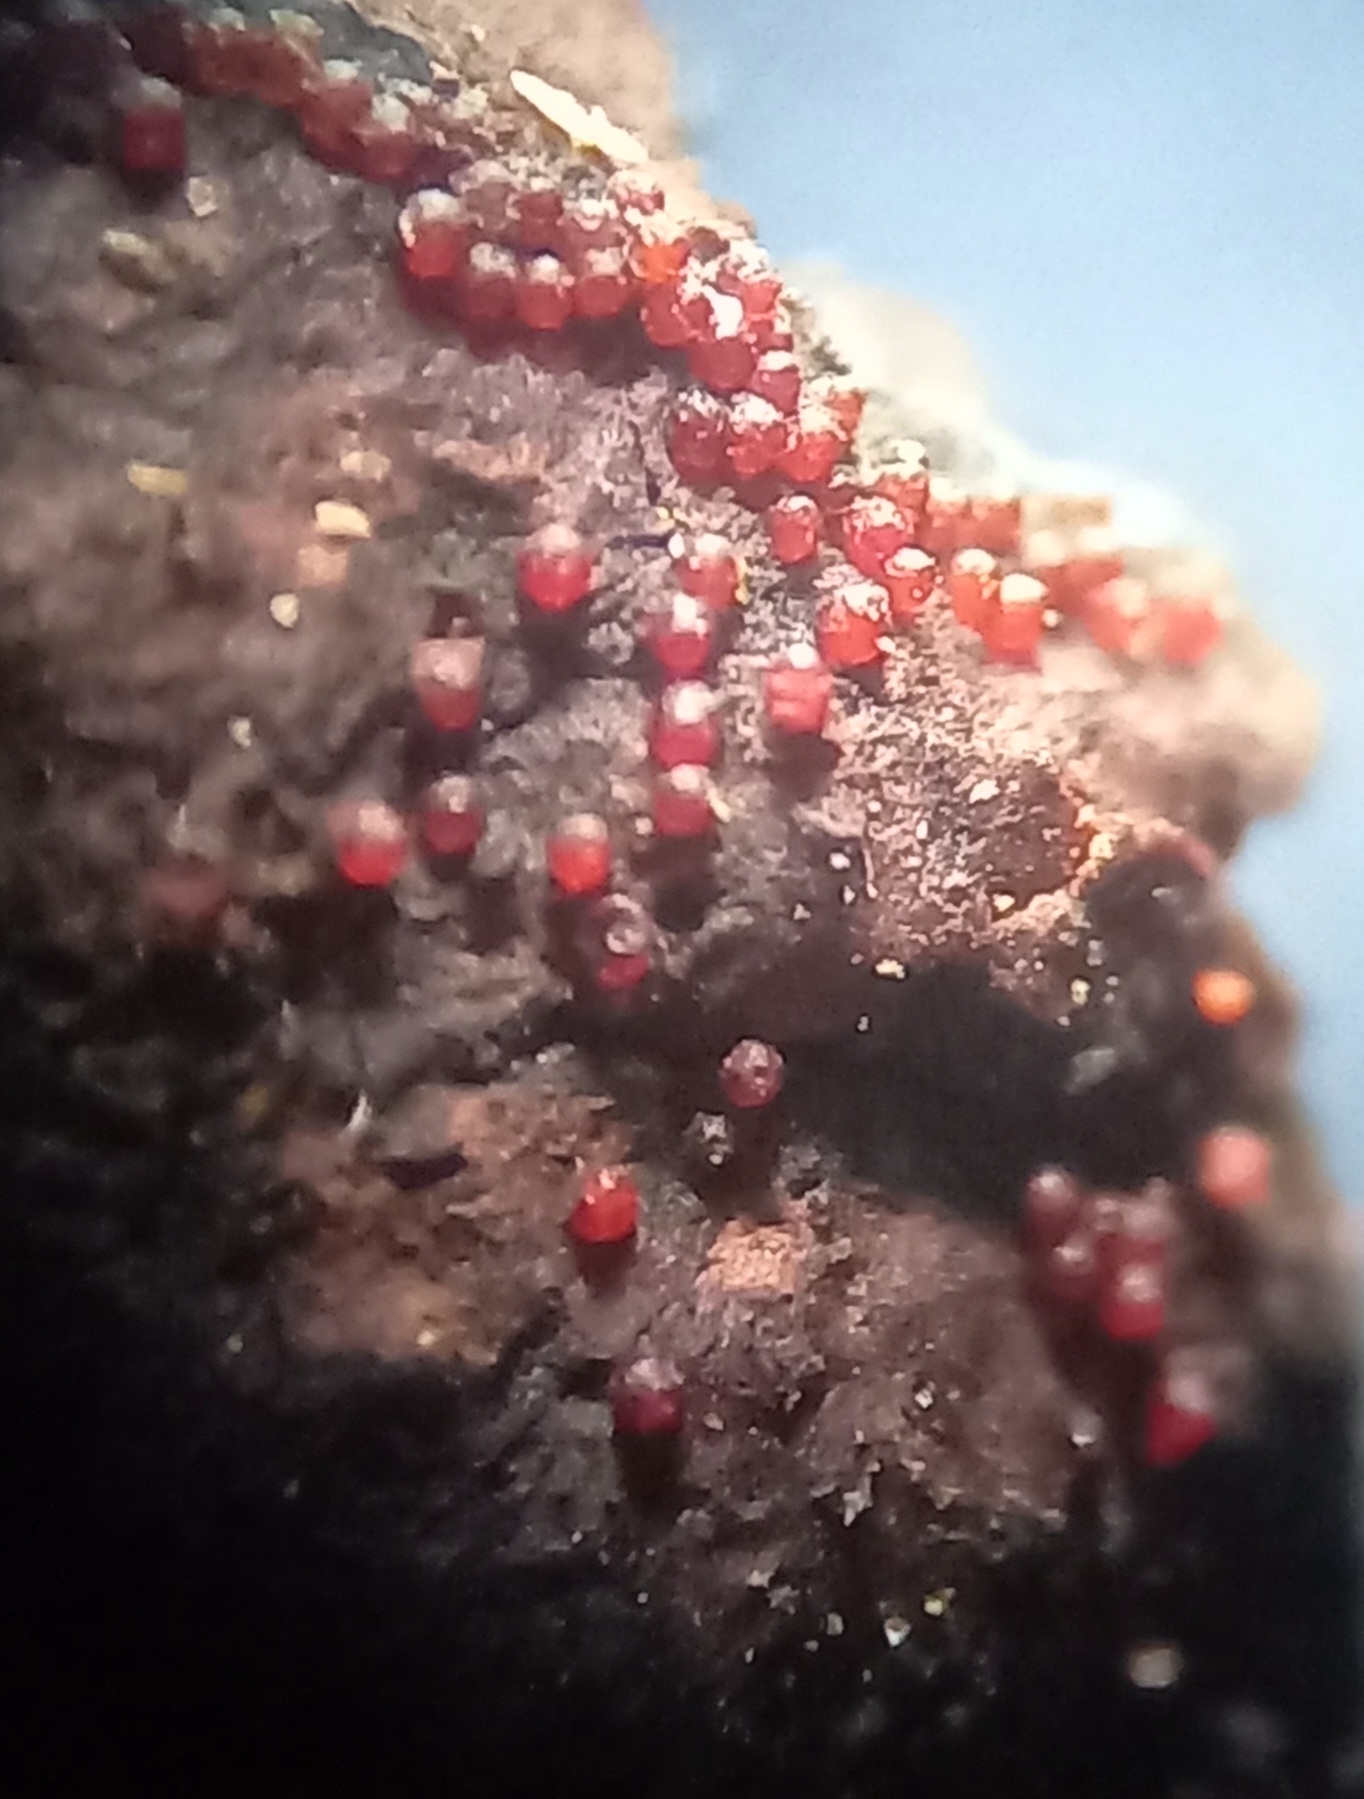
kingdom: Fungi
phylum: Ascomycota
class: Sordariomycetes
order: Hypocreales
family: Nectriaceae
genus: Cosmospora
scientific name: Cosmospora arxii
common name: kuljordbær-cinnobersvamp
